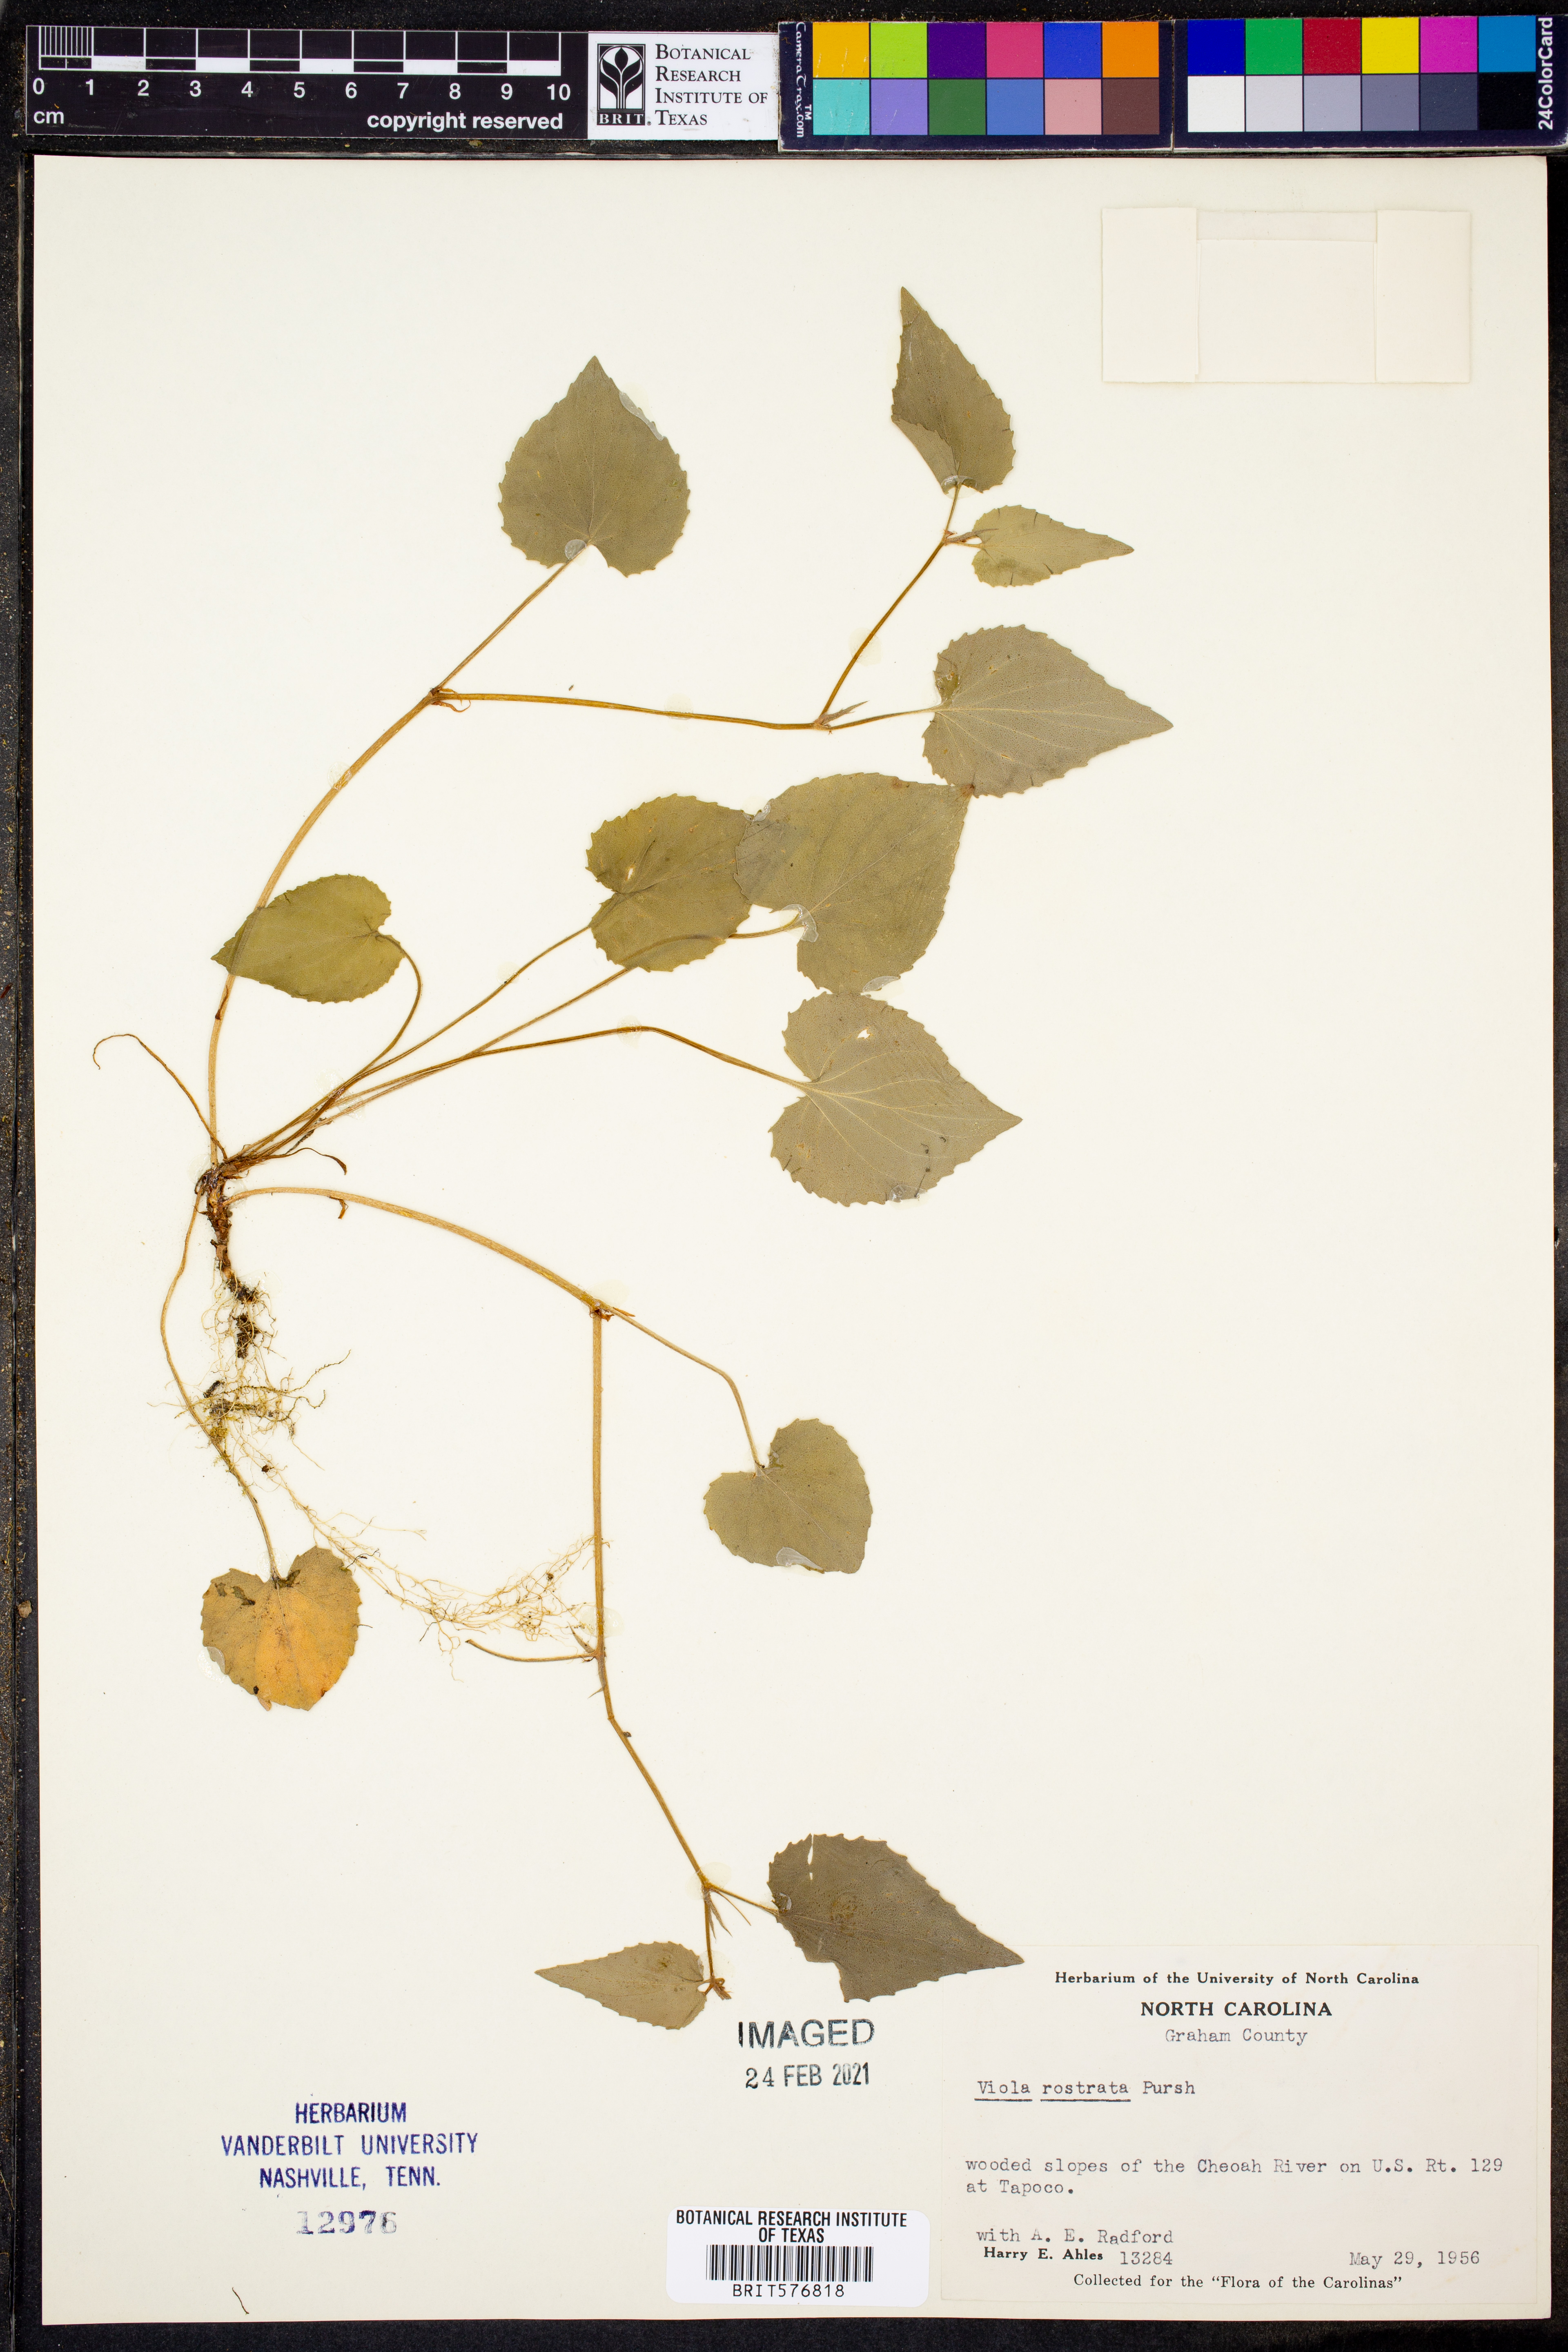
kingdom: Plantae
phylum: Tracheophyta
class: Magnoliopsida
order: Malpighiales
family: Violaceae
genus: Viola
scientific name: Viola rostrata
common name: Long-spur violet
